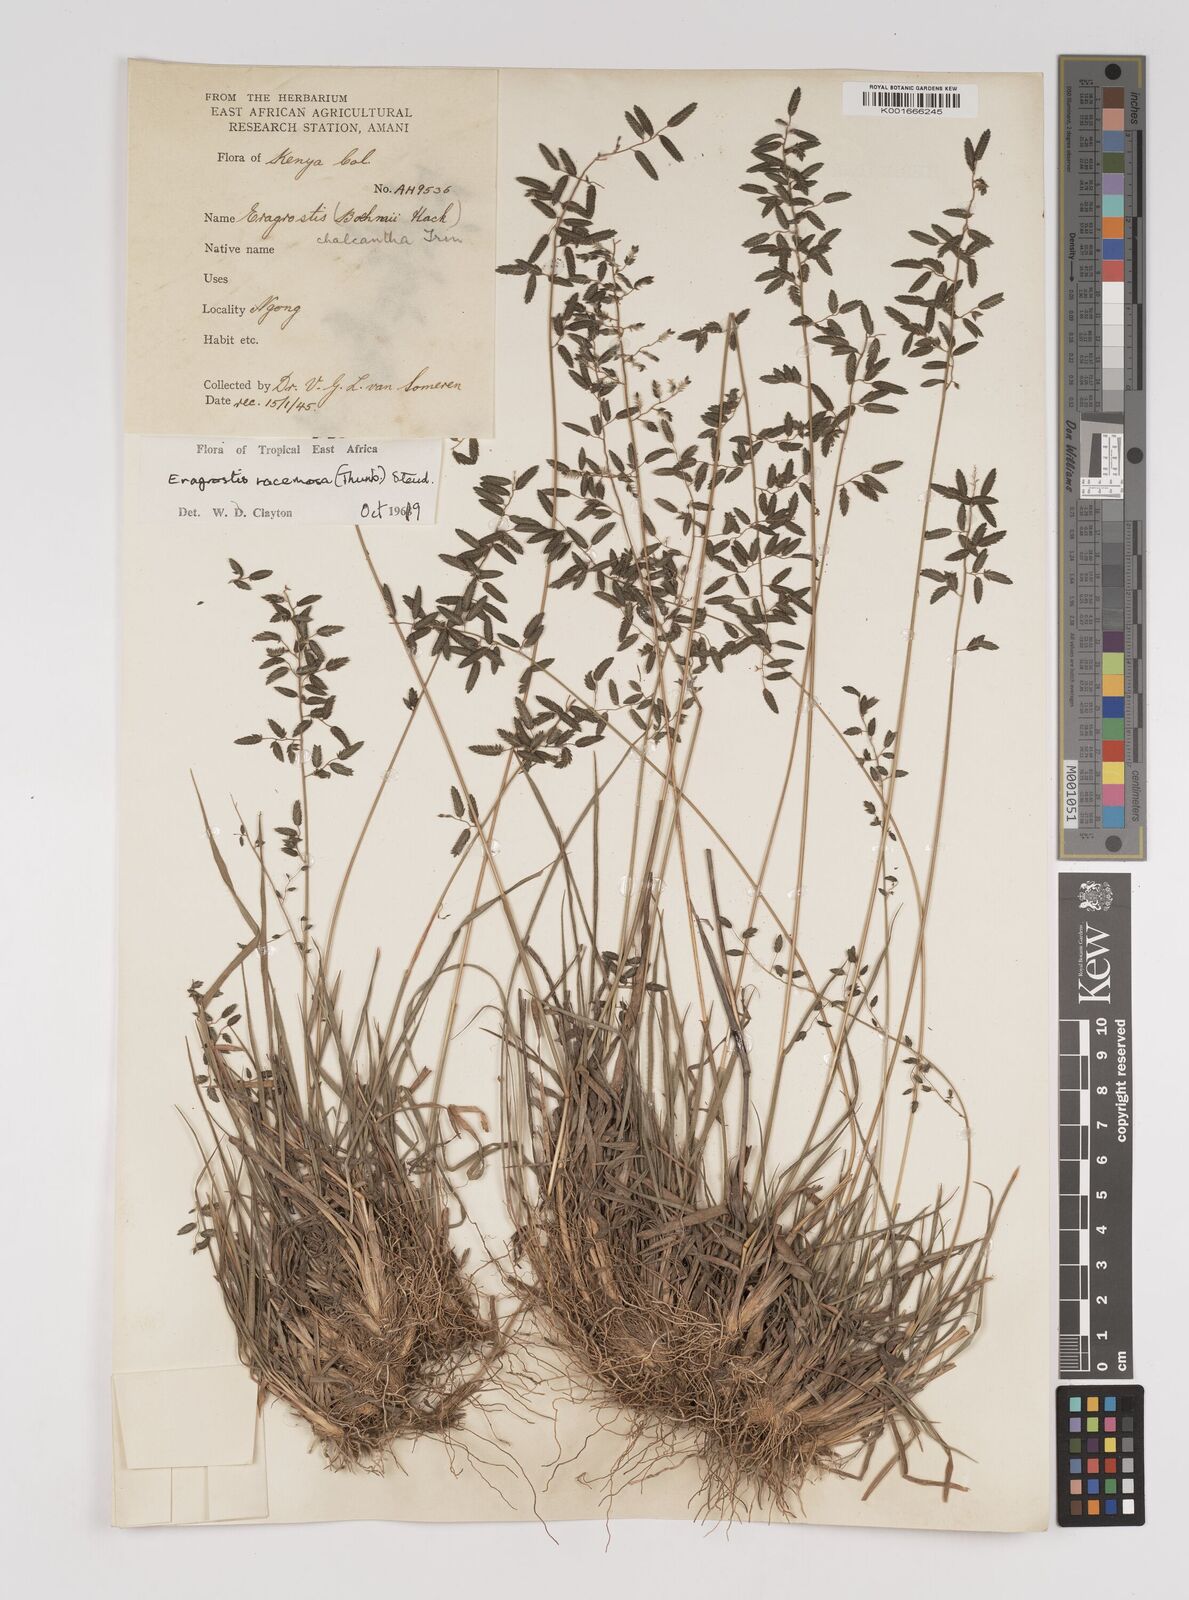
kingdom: Plantae
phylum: Tracheophyta
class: Liliopsida
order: Poales
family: Poaceae
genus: Eragrostis
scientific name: Eragrostis racemosa
